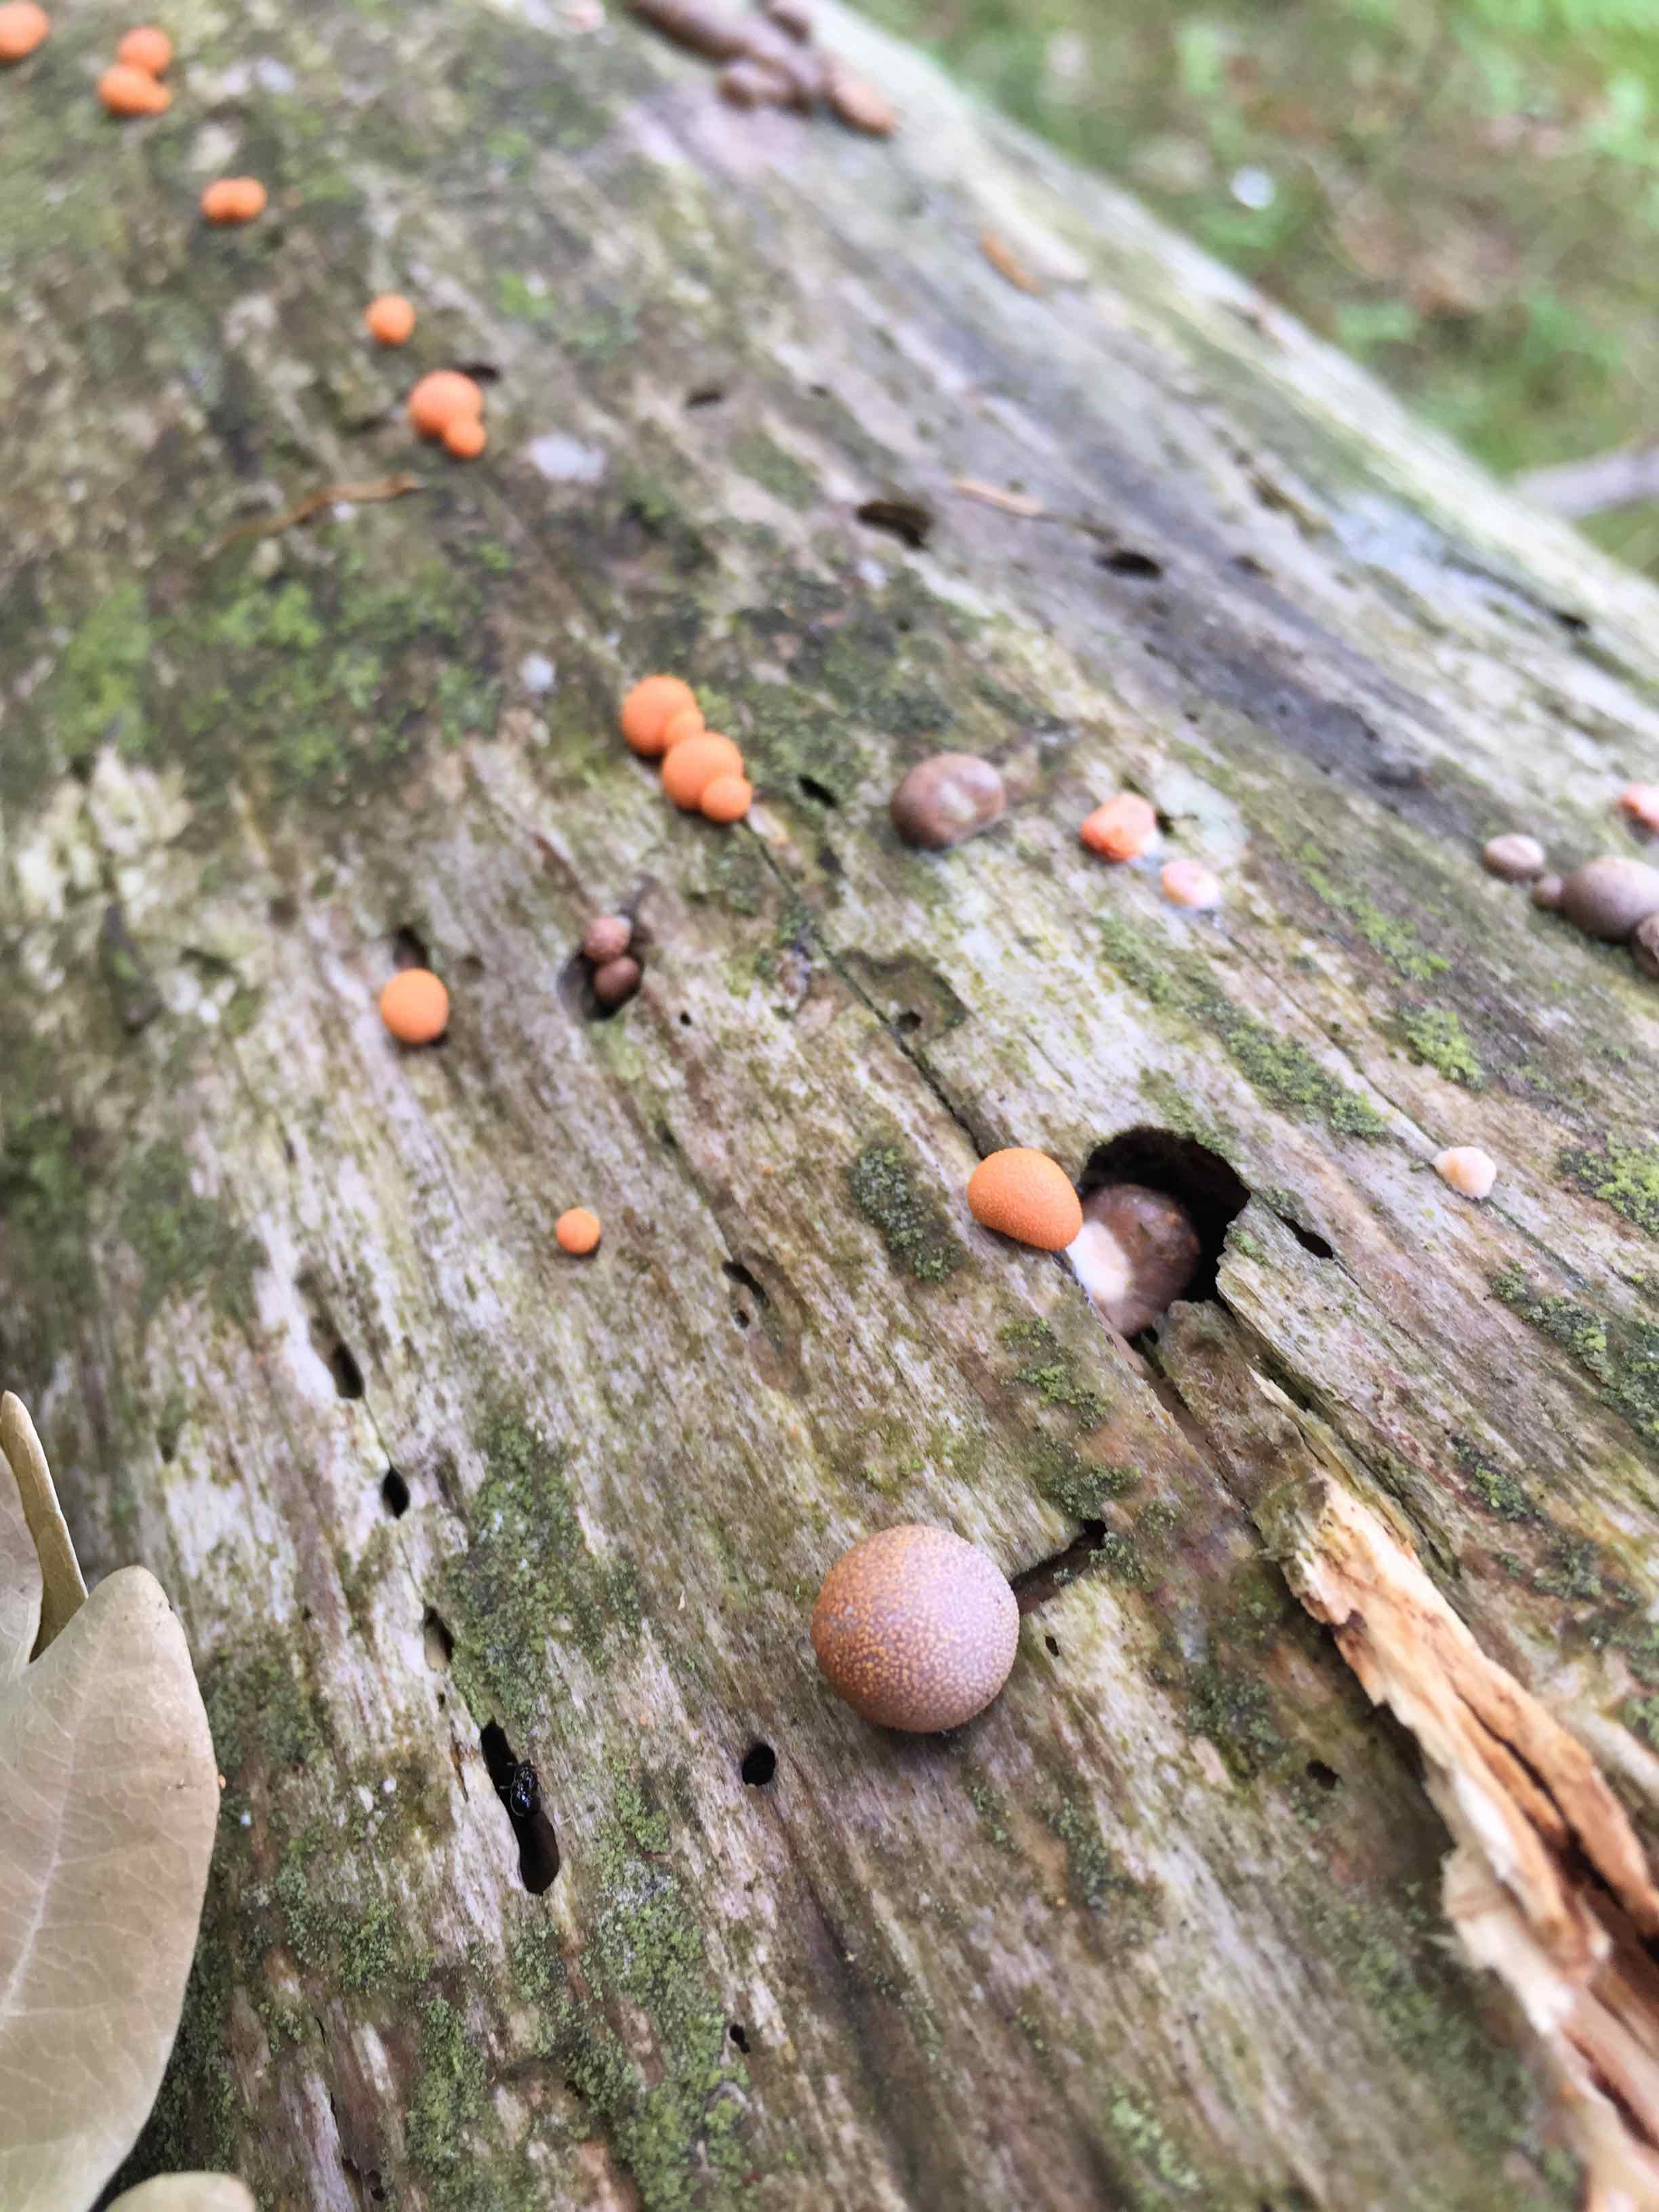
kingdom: Protozoa
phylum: Mycetozoa
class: Myxomycetes
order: Cribrariales
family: Tubiferaceae
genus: Lycogala
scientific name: Lycogala epidendrum
